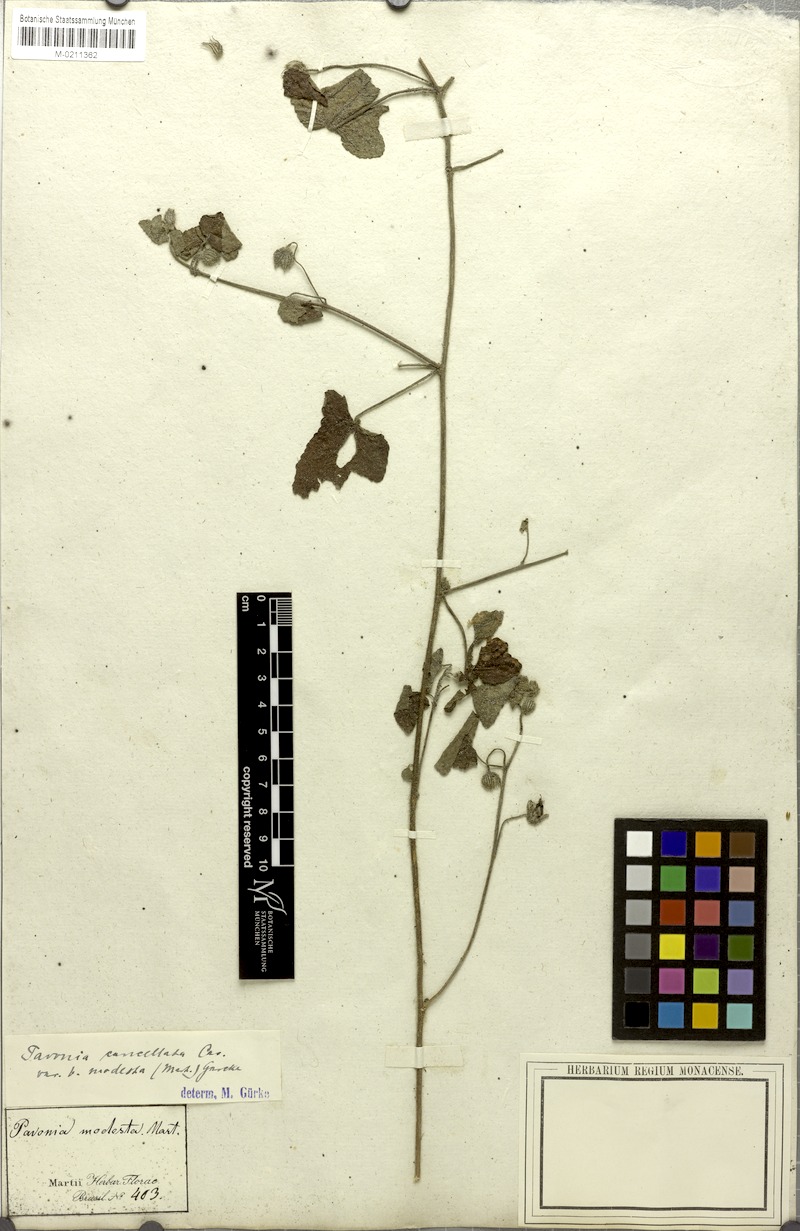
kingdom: Plantae
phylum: Tracheophyta
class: Magnoliopsida
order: Malvales
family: Malvaceae
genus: Pavonia
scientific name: Pavonia cancellata
